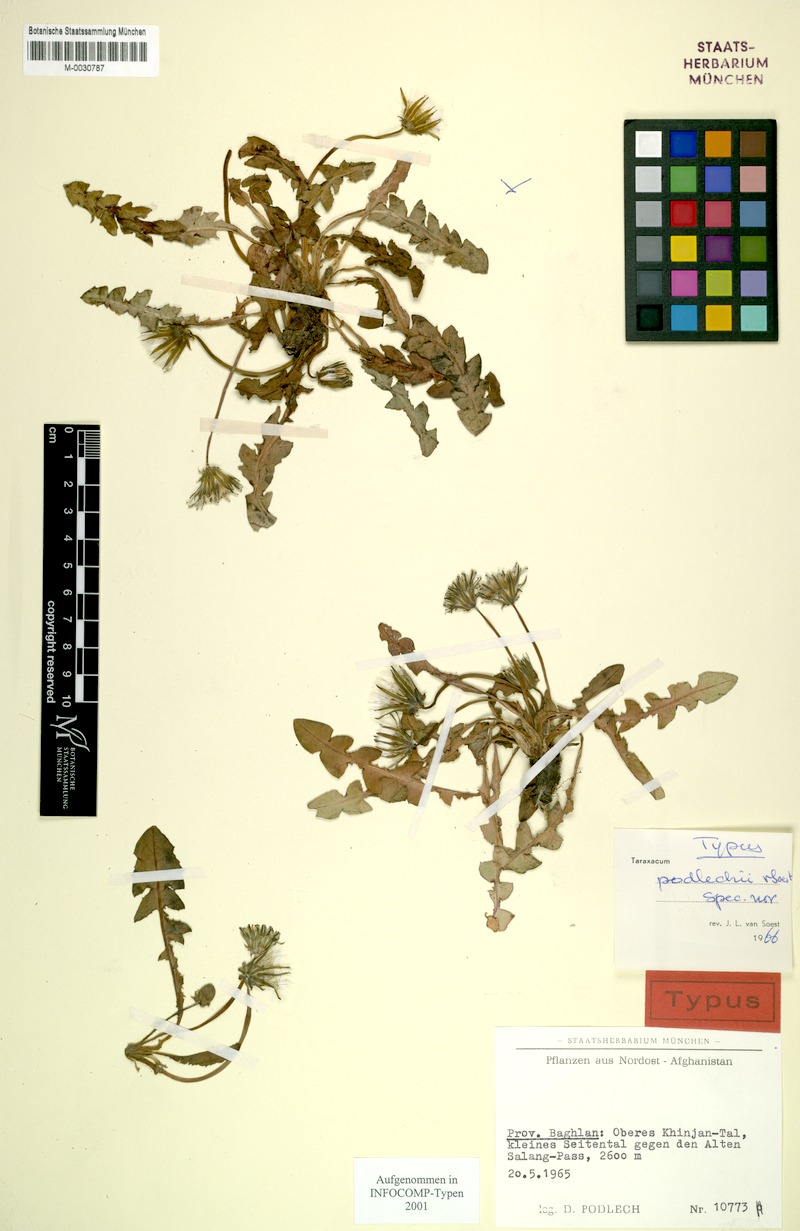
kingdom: Plantae
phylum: Tracheophyta
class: Magnoliopsida
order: Asterales
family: Asteraceae
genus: Taraxacum
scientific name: Taraxacum podlechii
